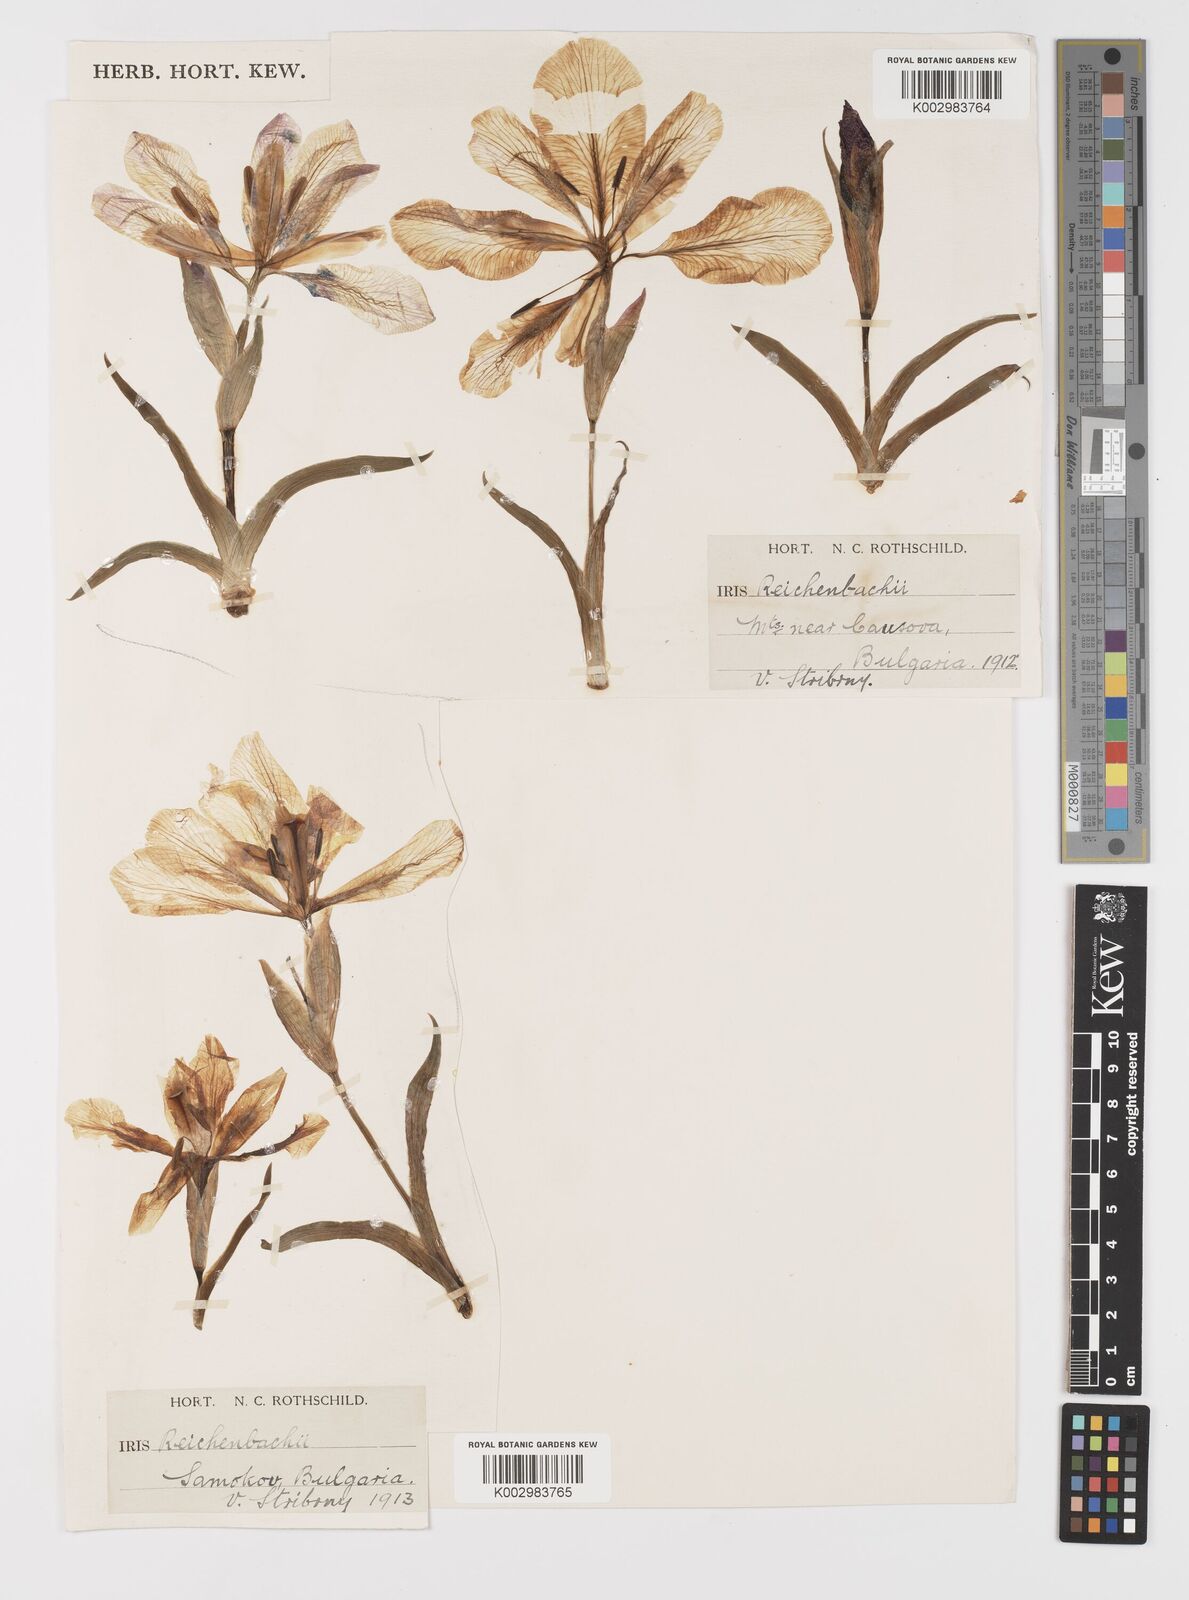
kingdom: Plantae
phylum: Tracheophyta
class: Liliopsida
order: Asparagales
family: Iridaceae
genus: Iris
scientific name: Iris reichenbachii
